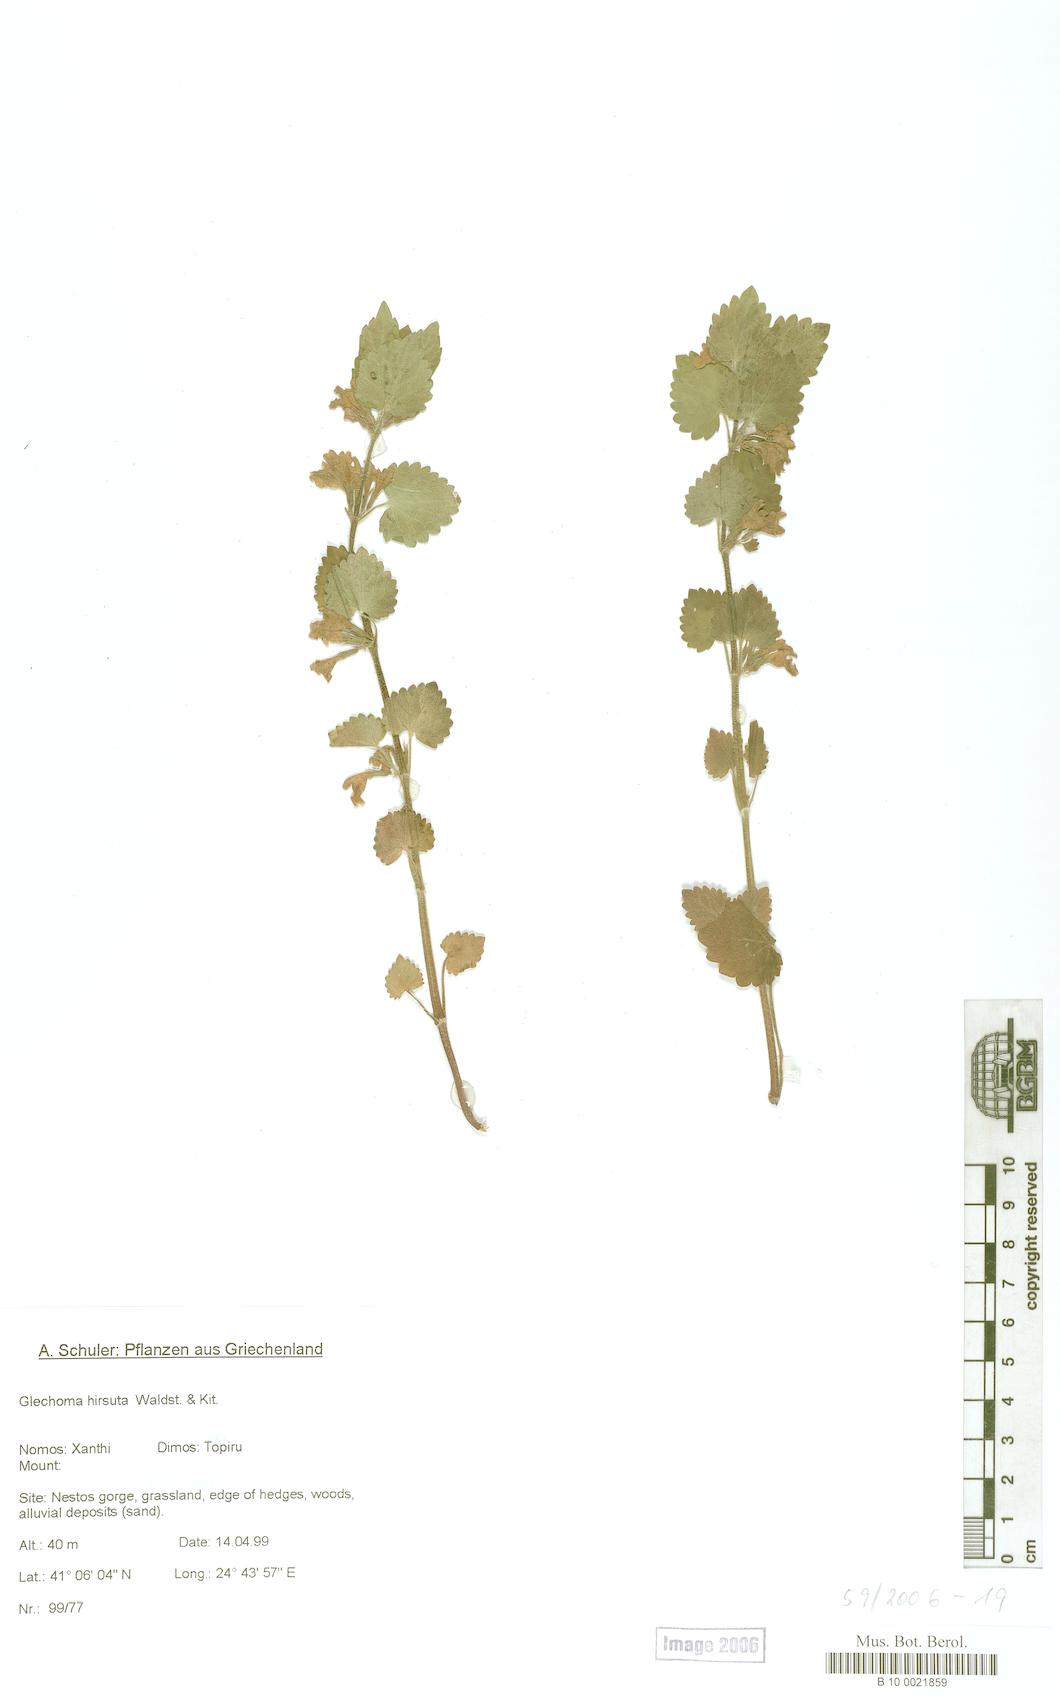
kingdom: Plantae
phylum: Tracheophyta
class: Magnoliopsida
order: Lamiales
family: Lamiaceae
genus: Glechoma
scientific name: Glechoma hirsuta
